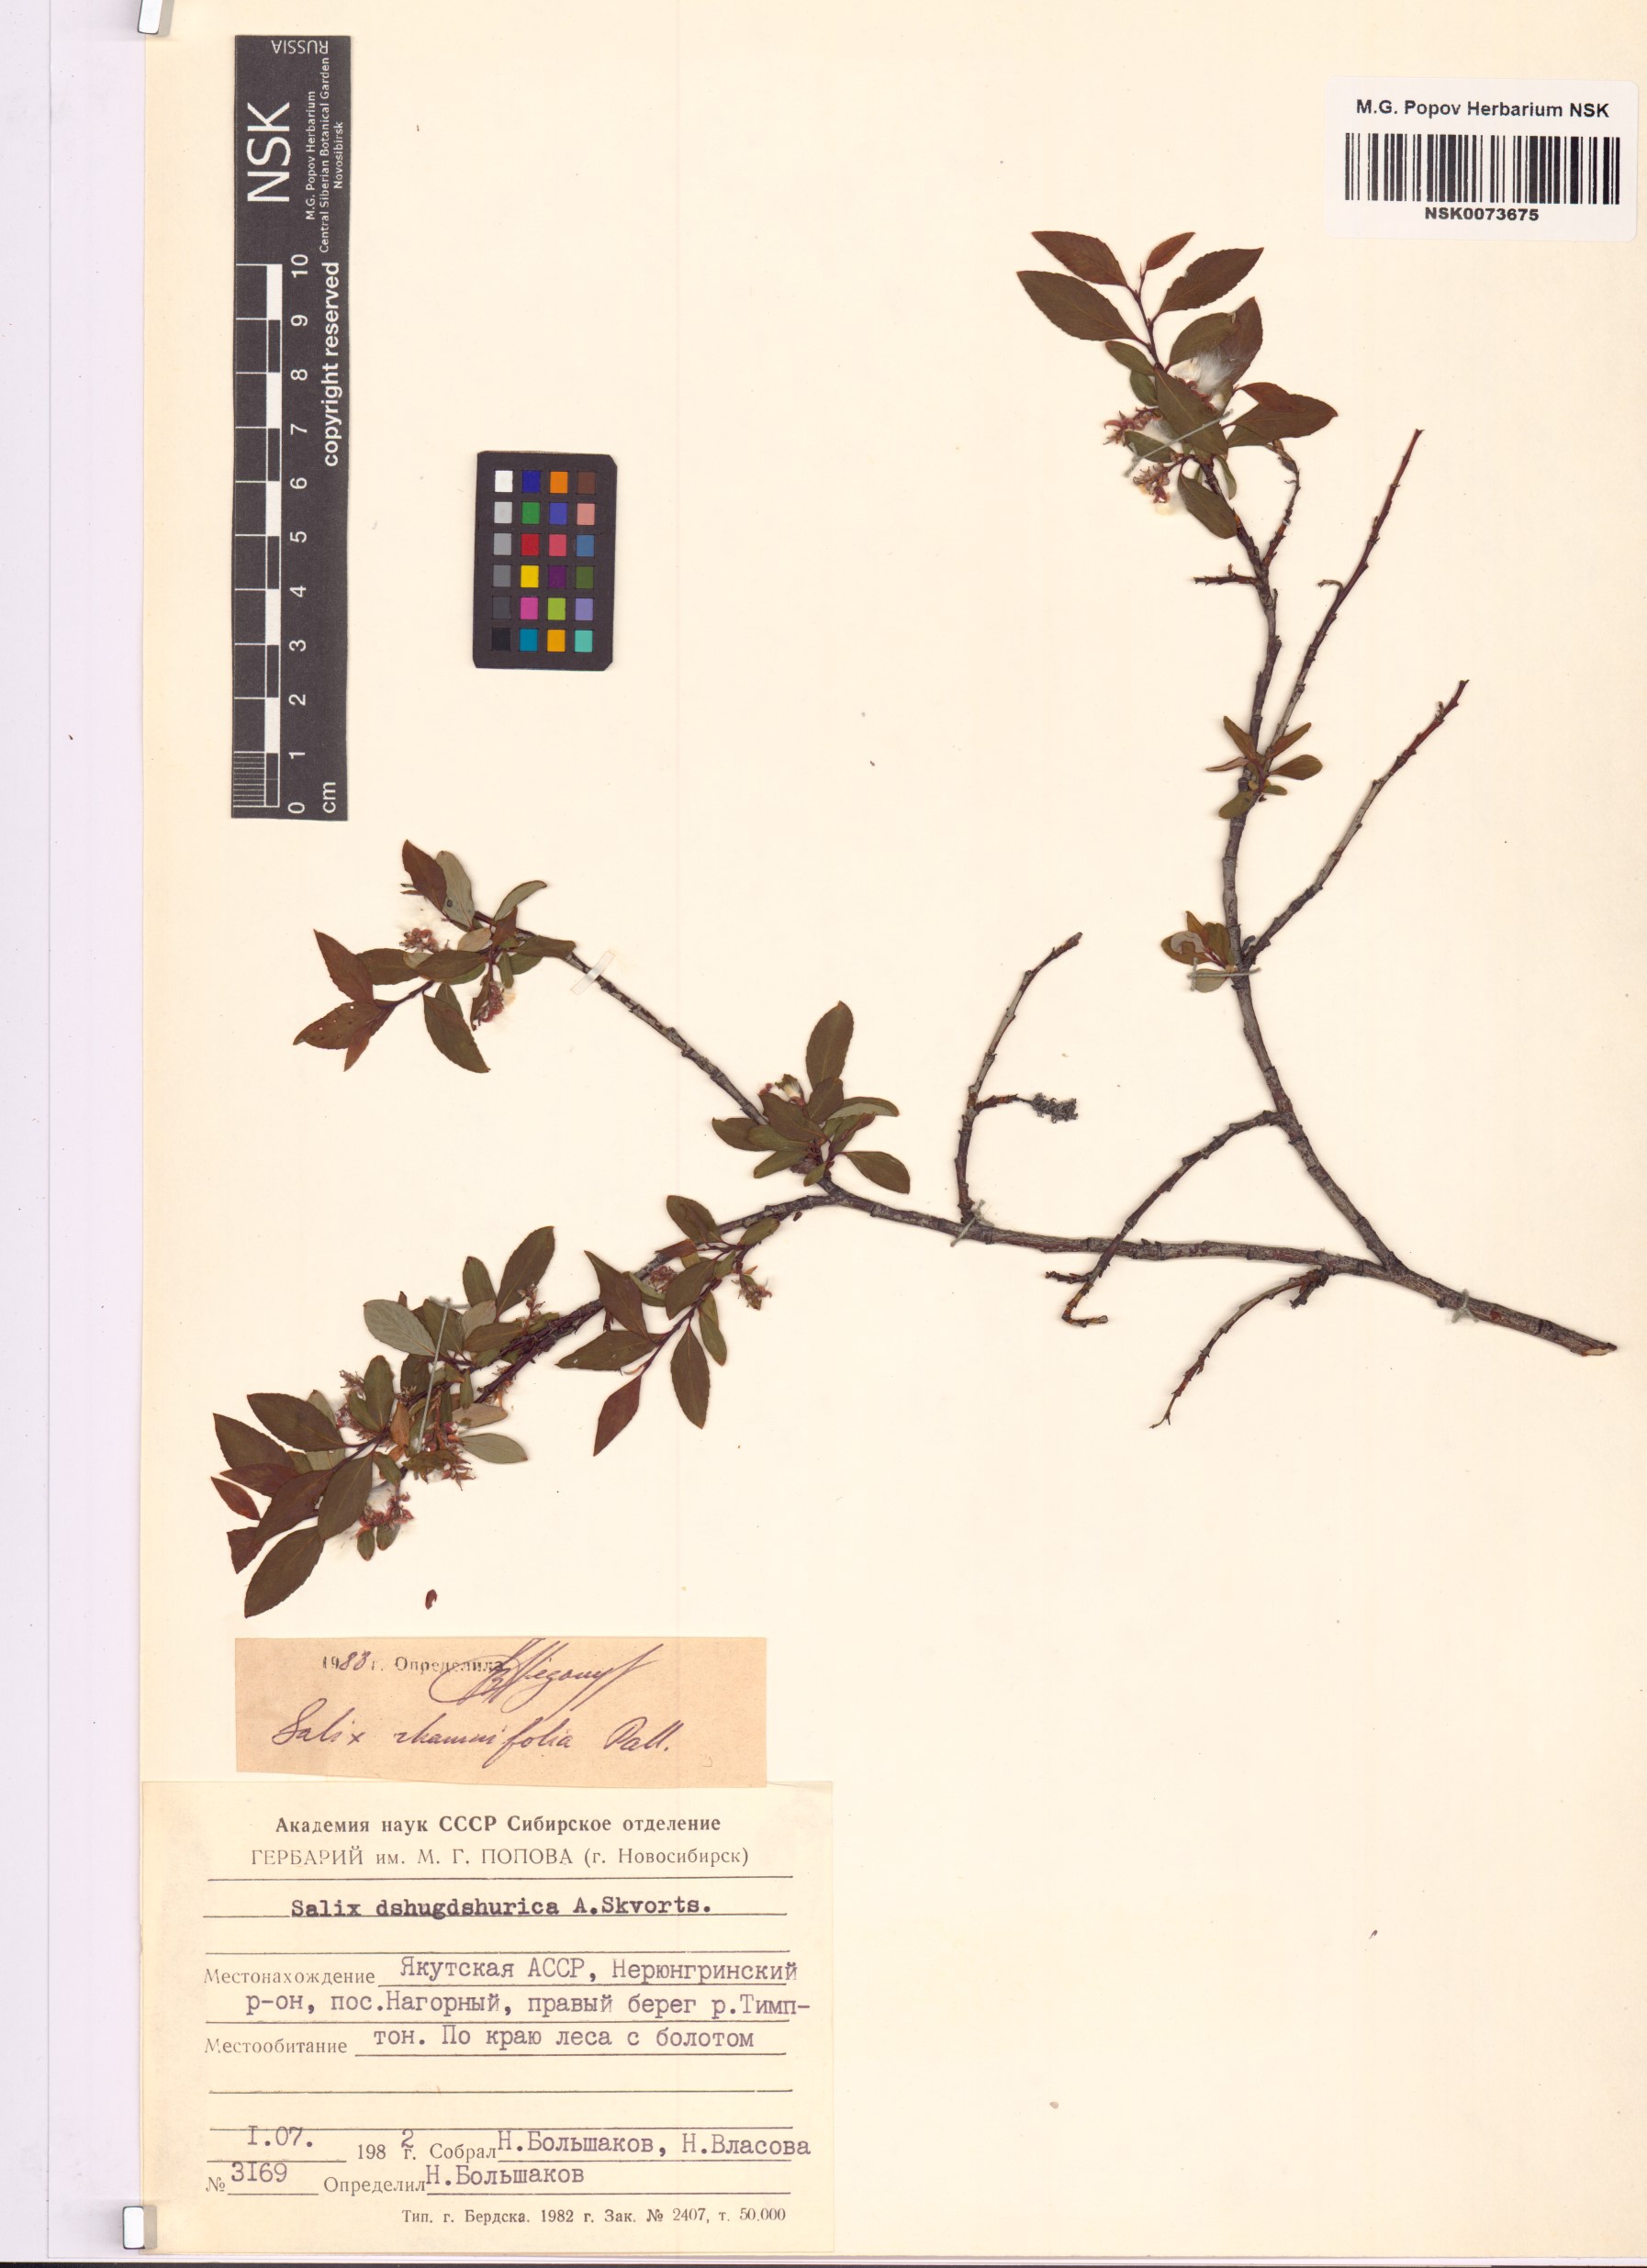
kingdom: Plantae
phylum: Tracheophyta
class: Magnoliopsida
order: Malpighiales
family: Salicaceae
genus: Salix
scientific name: Salix rhamnifolia
